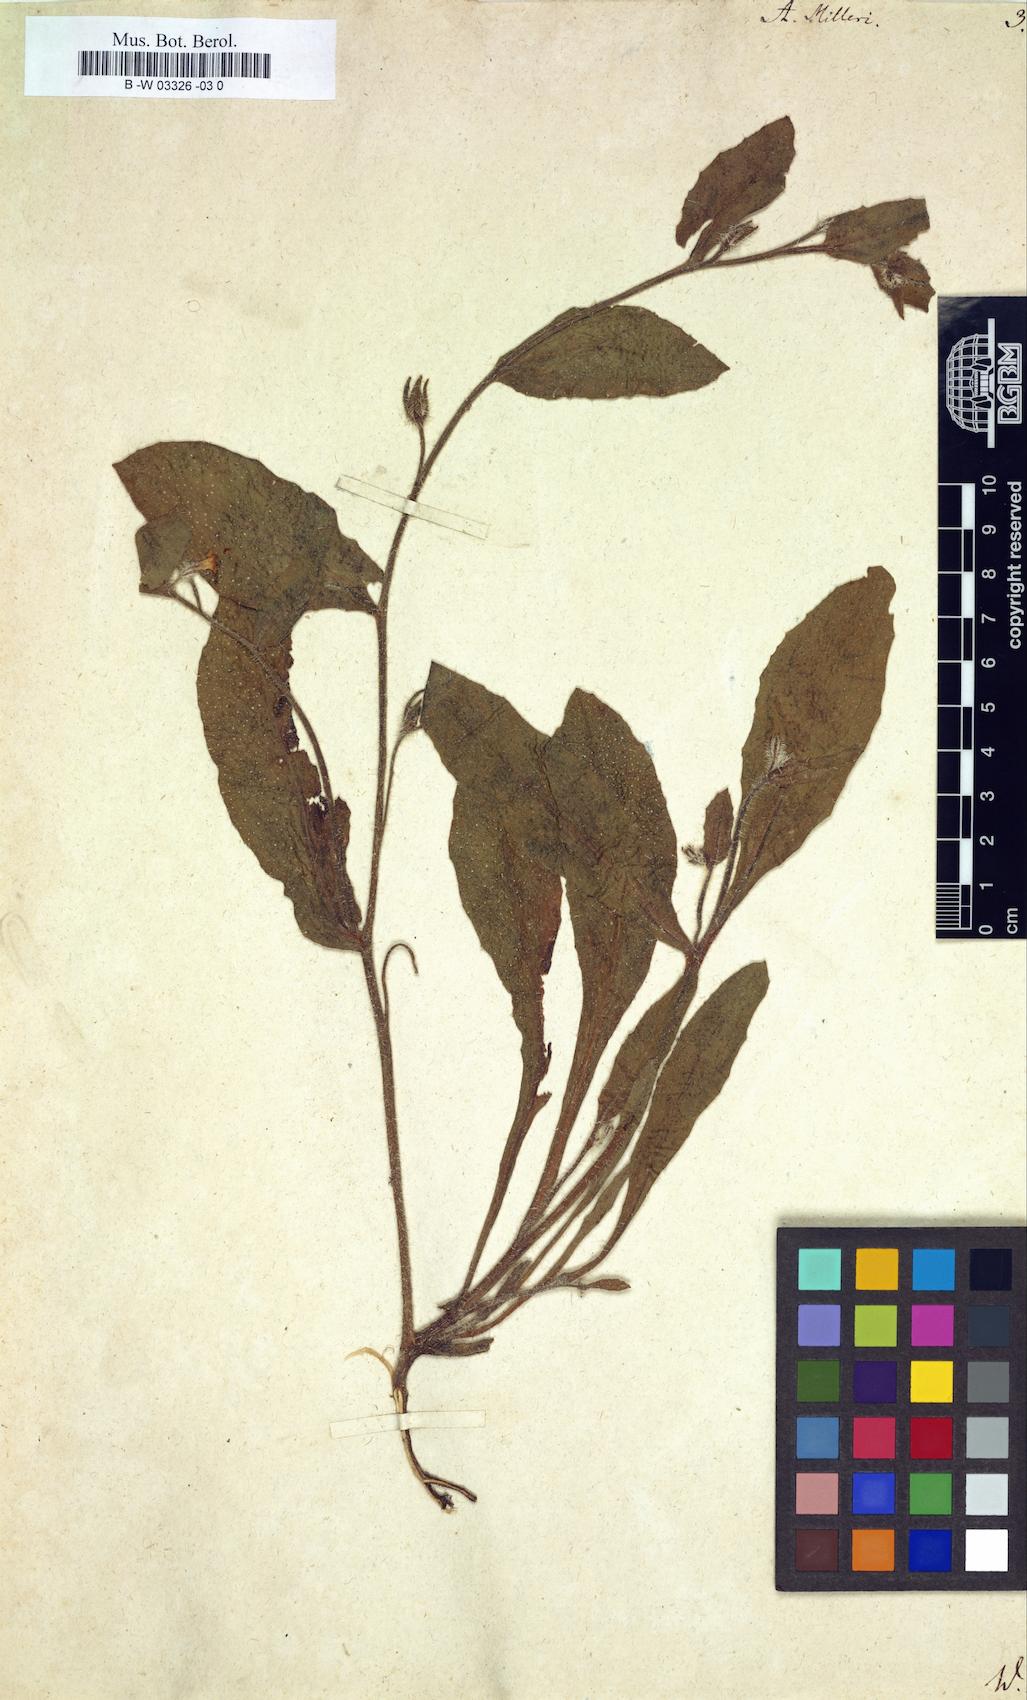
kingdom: Plantae
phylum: Tracheophyta
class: Magnoliopsida
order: Boraginales
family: Boraginaceae
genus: Anchusa
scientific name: Anchusa milleri
